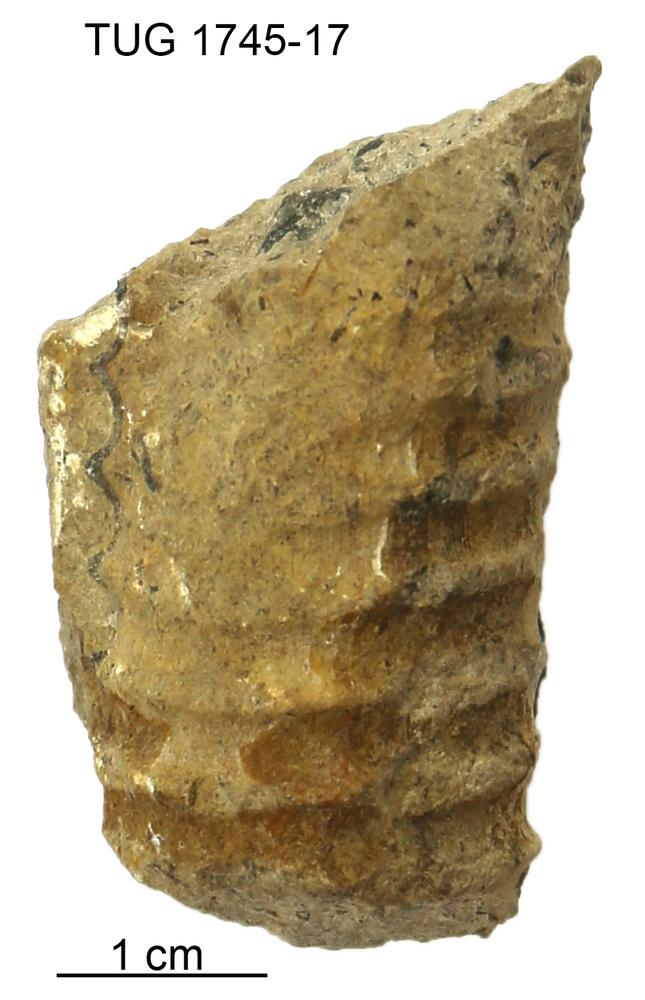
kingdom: Animalia
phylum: Mollusca
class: Cephalopoda
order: Orthocerida
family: Pseudorthoceratidae
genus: Spyroceras
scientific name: Spyroceras
